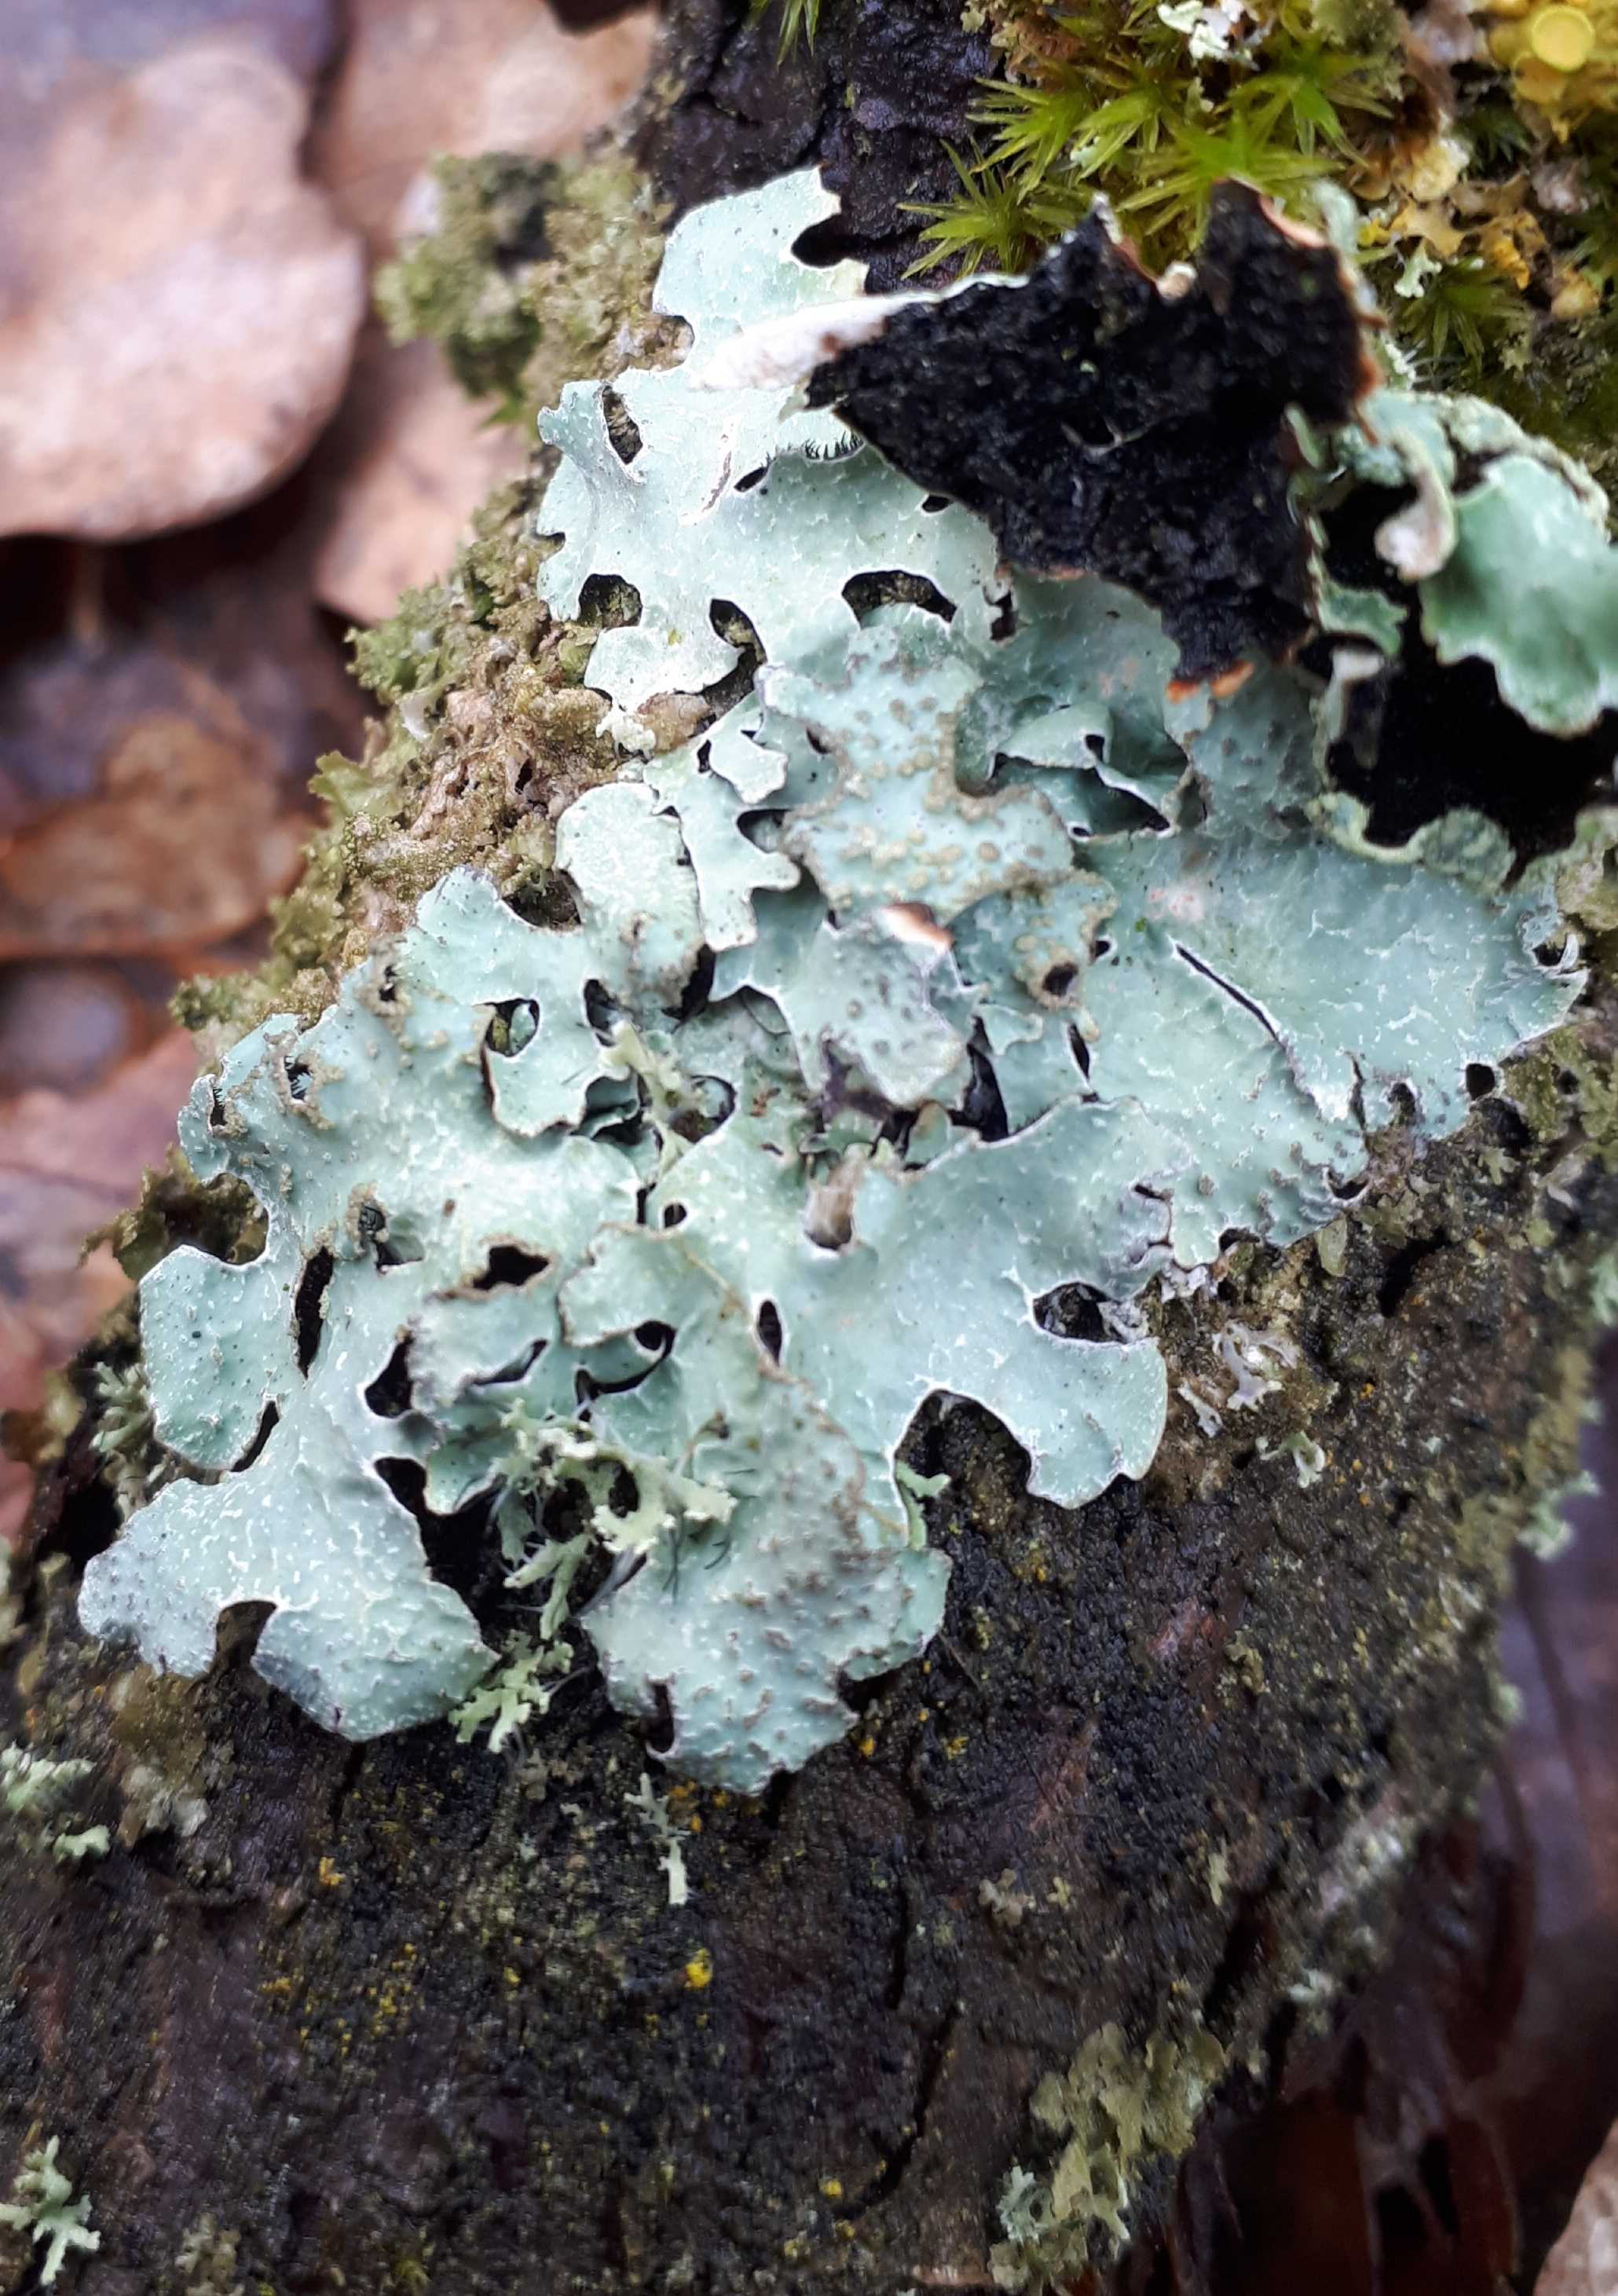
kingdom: Fungi
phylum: Ascomycota
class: Lecanoromycetes
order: Lecanorales
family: Parmeliaceae
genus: Parmelia
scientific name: Parmelia sulcata
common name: rynket skållav
